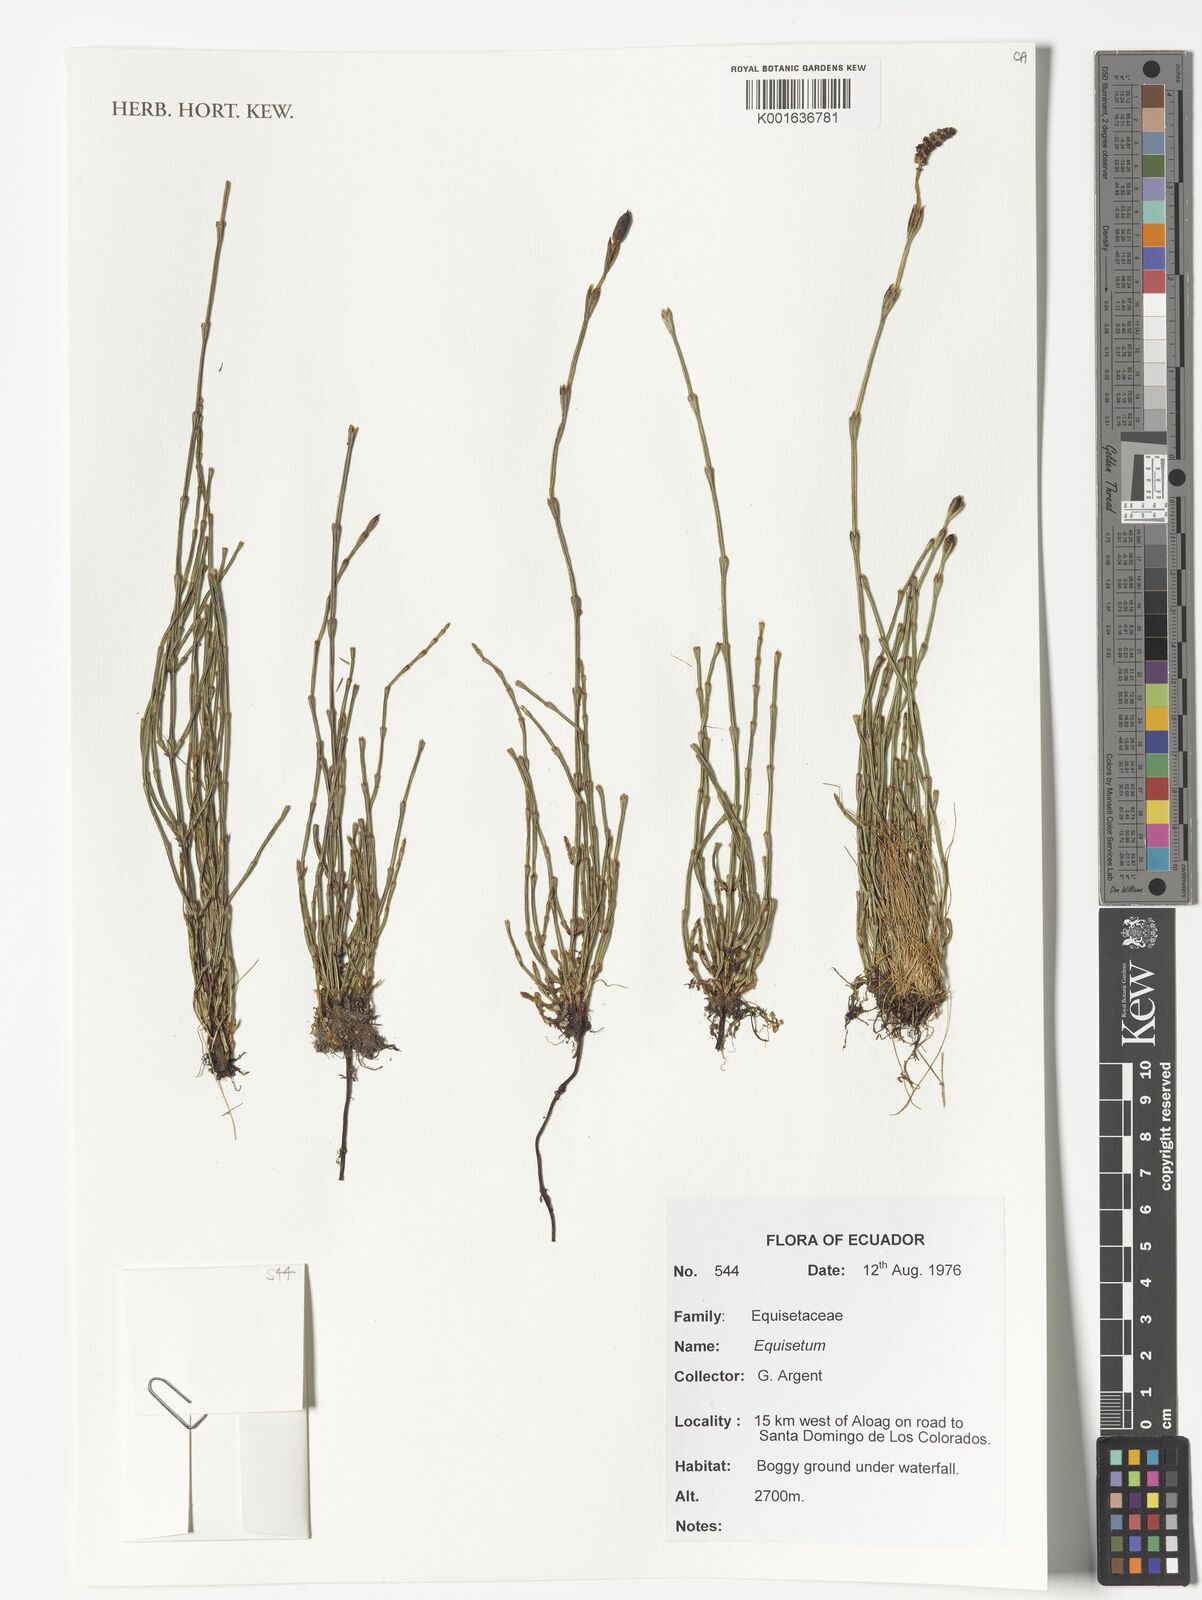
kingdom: Plantae
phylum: Tracheophyta
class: Polypodiopsida
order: Equisetales
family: Equisetaceae
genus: Equisetum
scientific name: Equisetum
